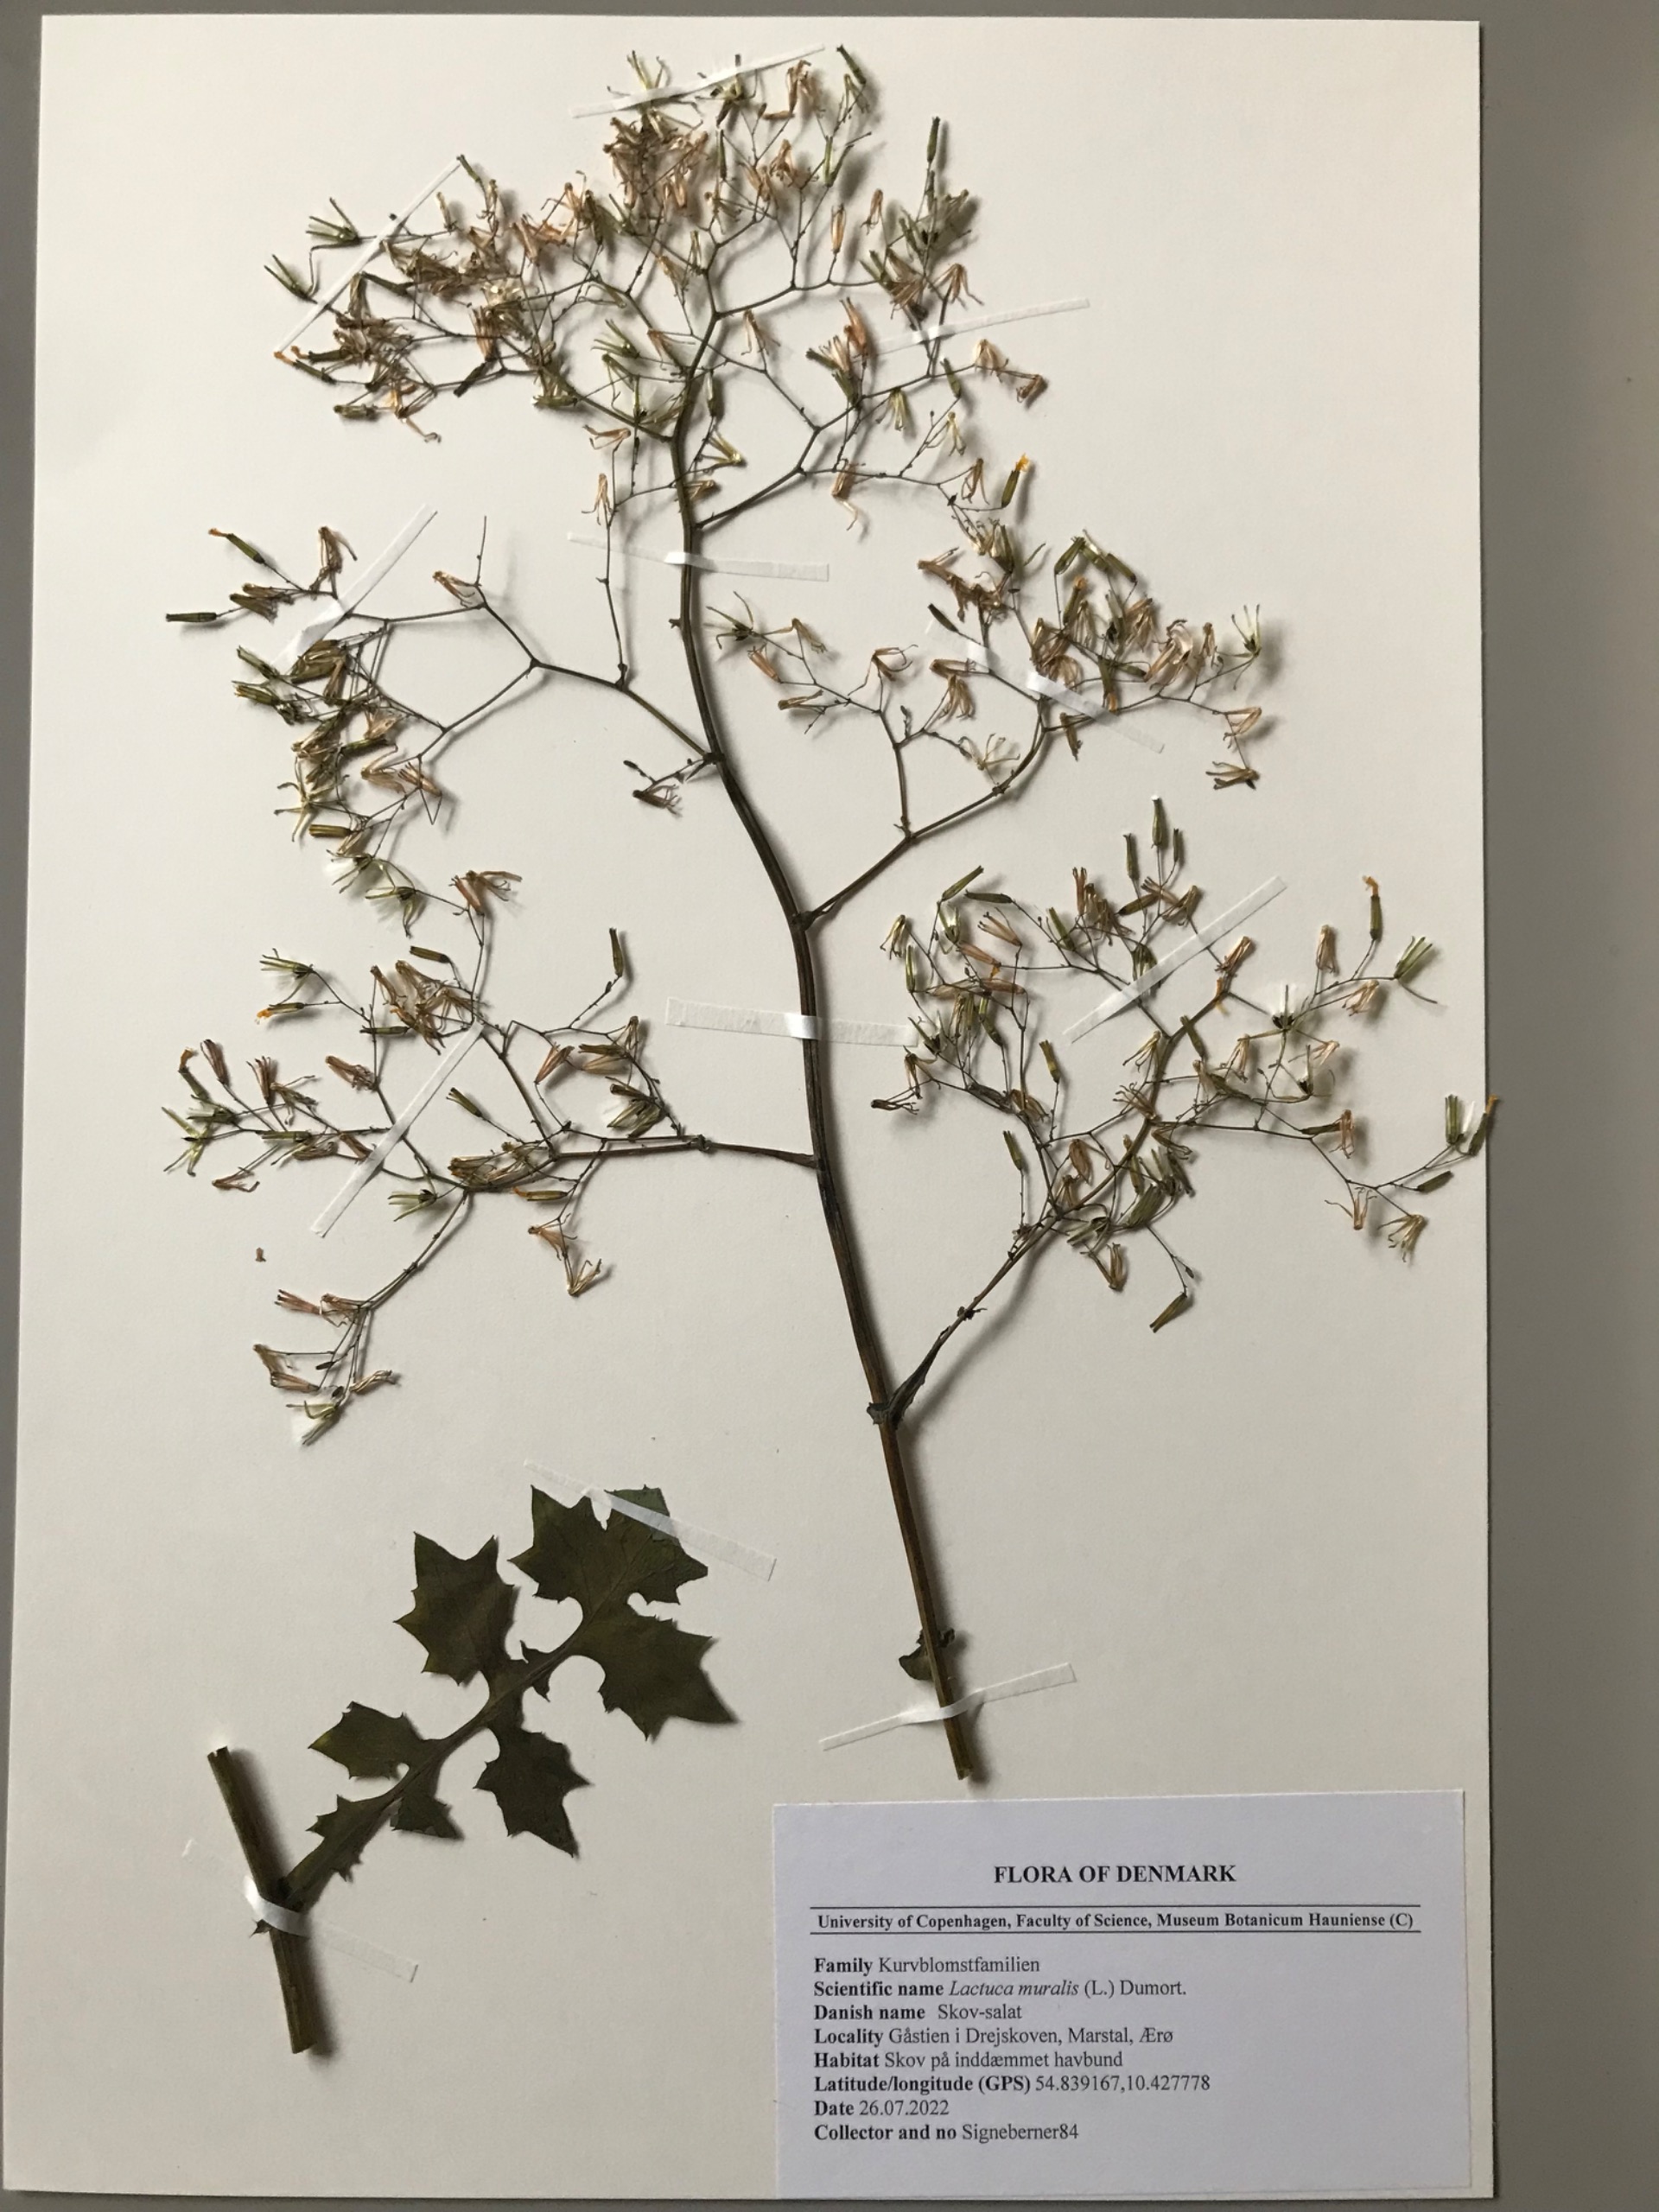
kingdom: Plantae
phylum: Tracheophyta
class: Magnoliopsida
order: Asterales
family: Asteraceae
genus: Mycelis
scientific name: Mycelis muralis
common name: Skov-salat
